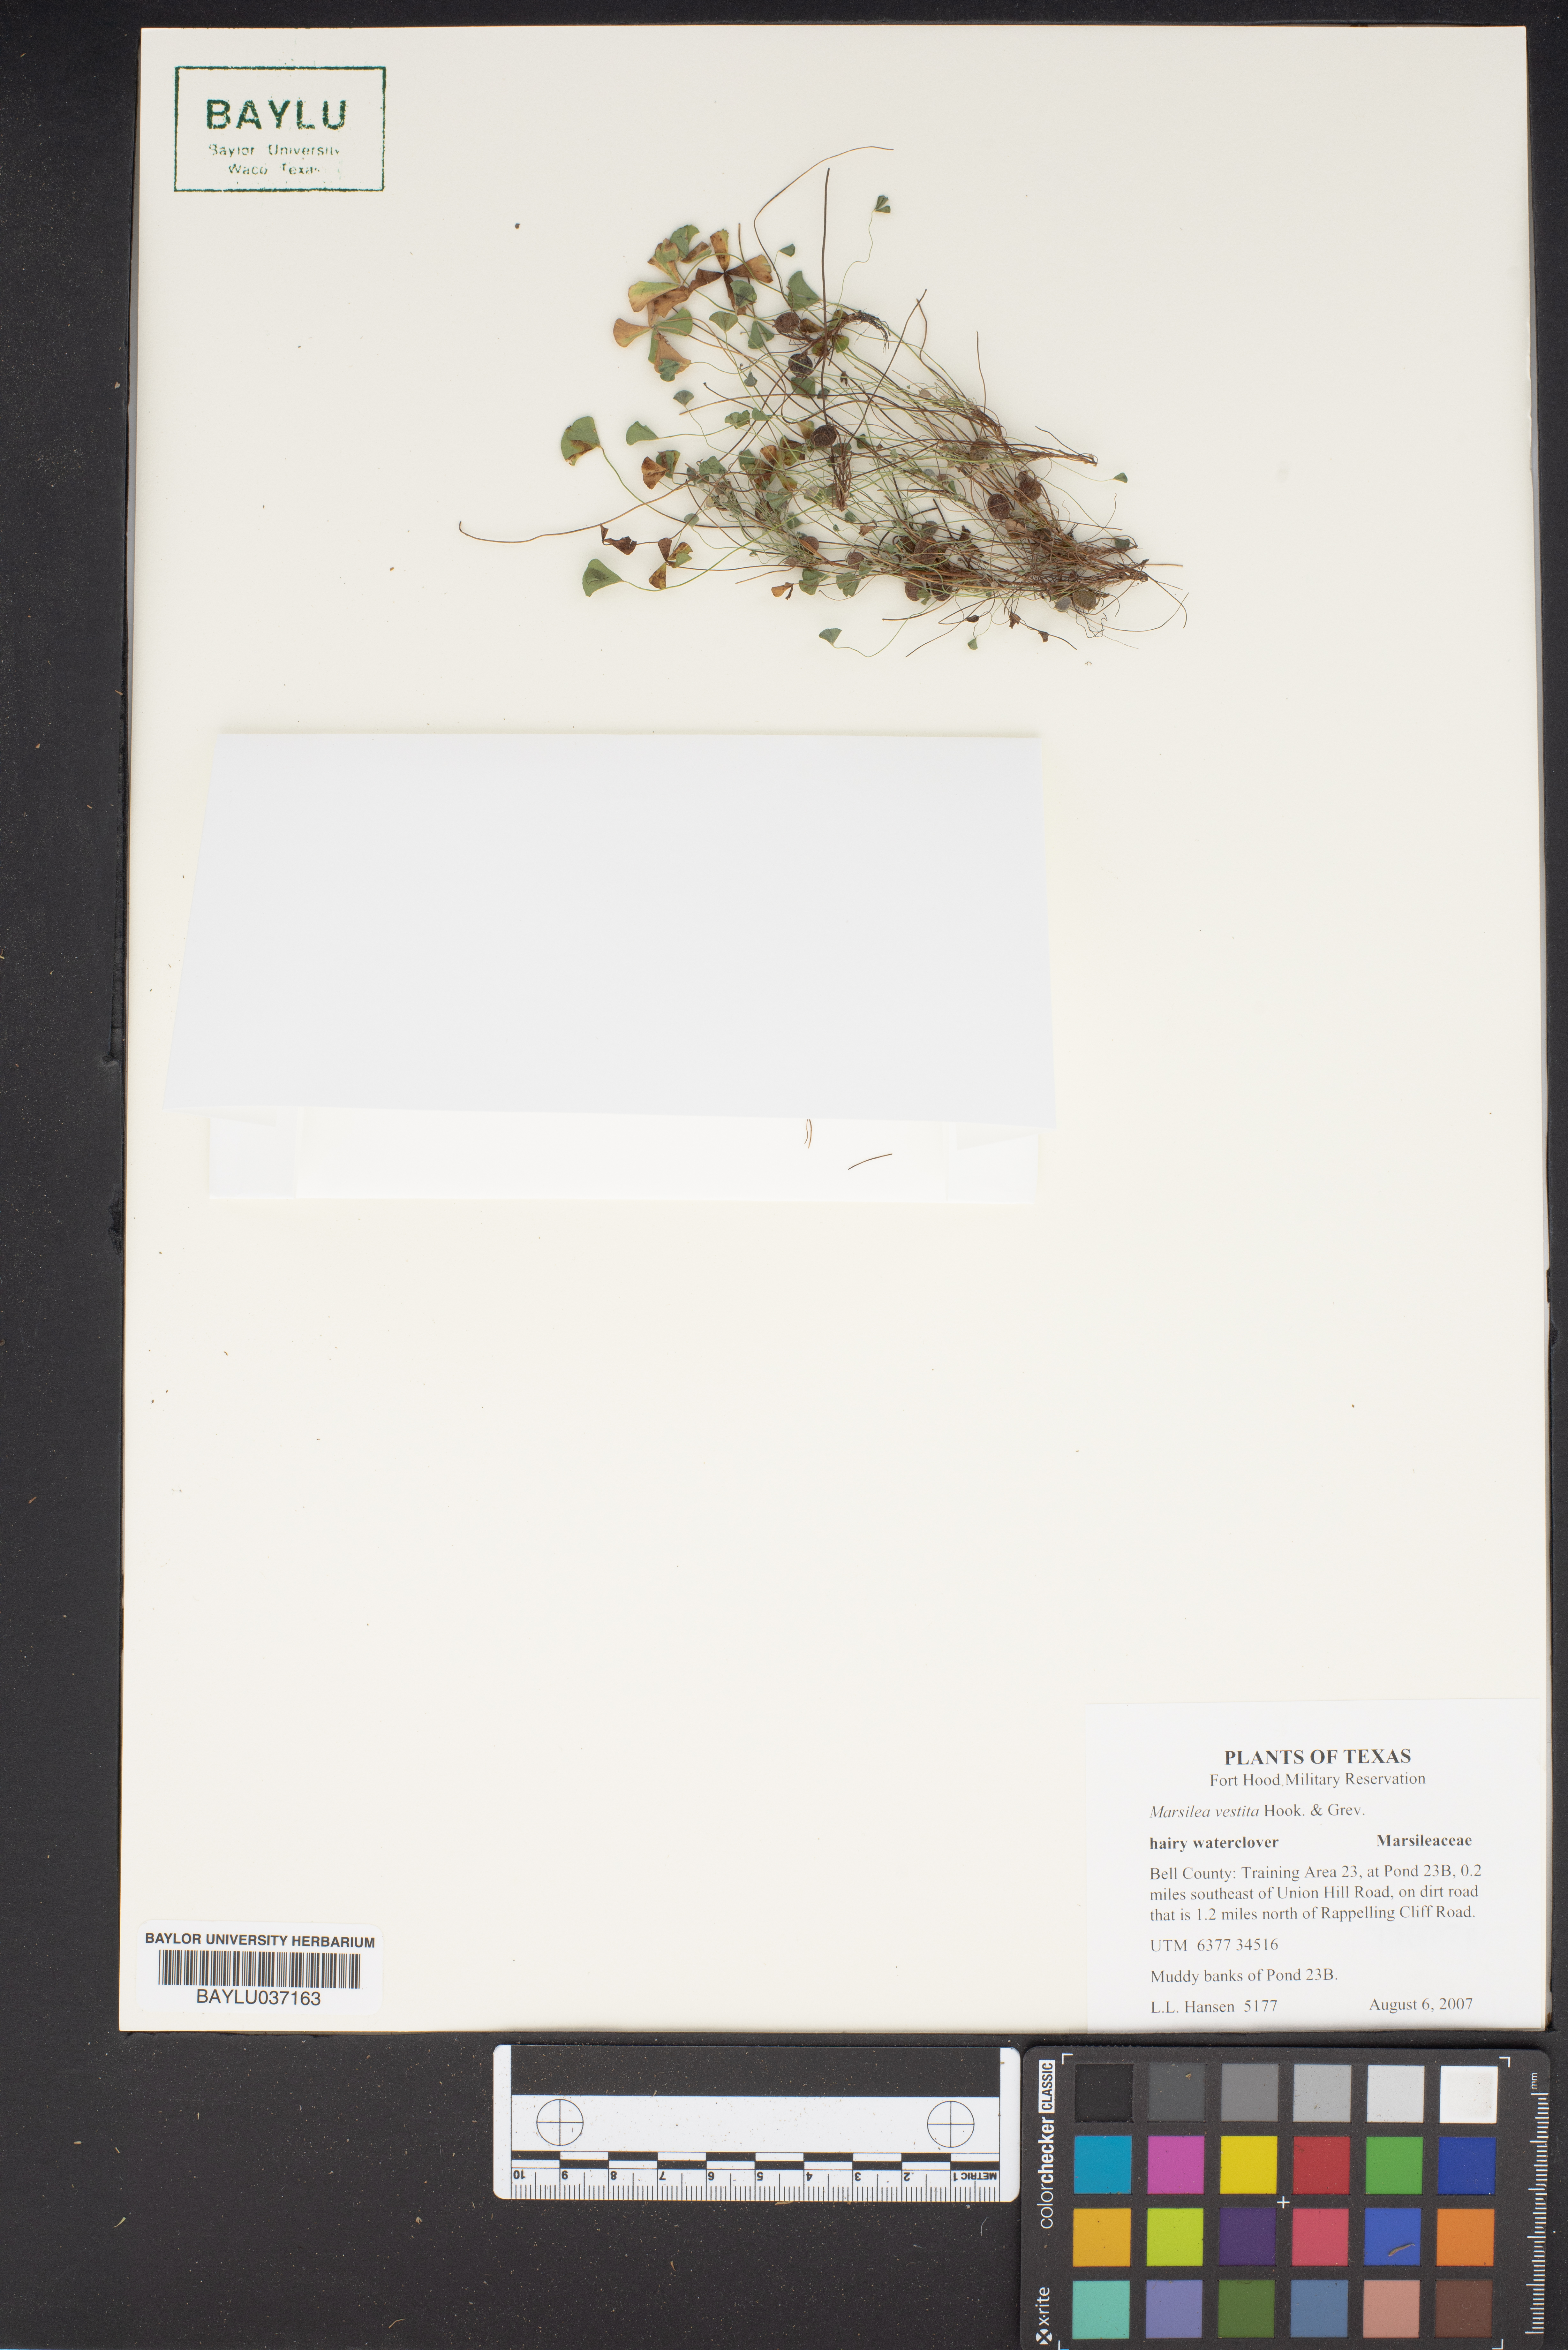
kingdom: Plantae
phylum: Tracheophyta
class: Polypodiopsida
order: Salviniales
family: Marsileaceae
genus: Marsilea
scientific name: Marsilea vestita
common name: Hooked-pepperwort
